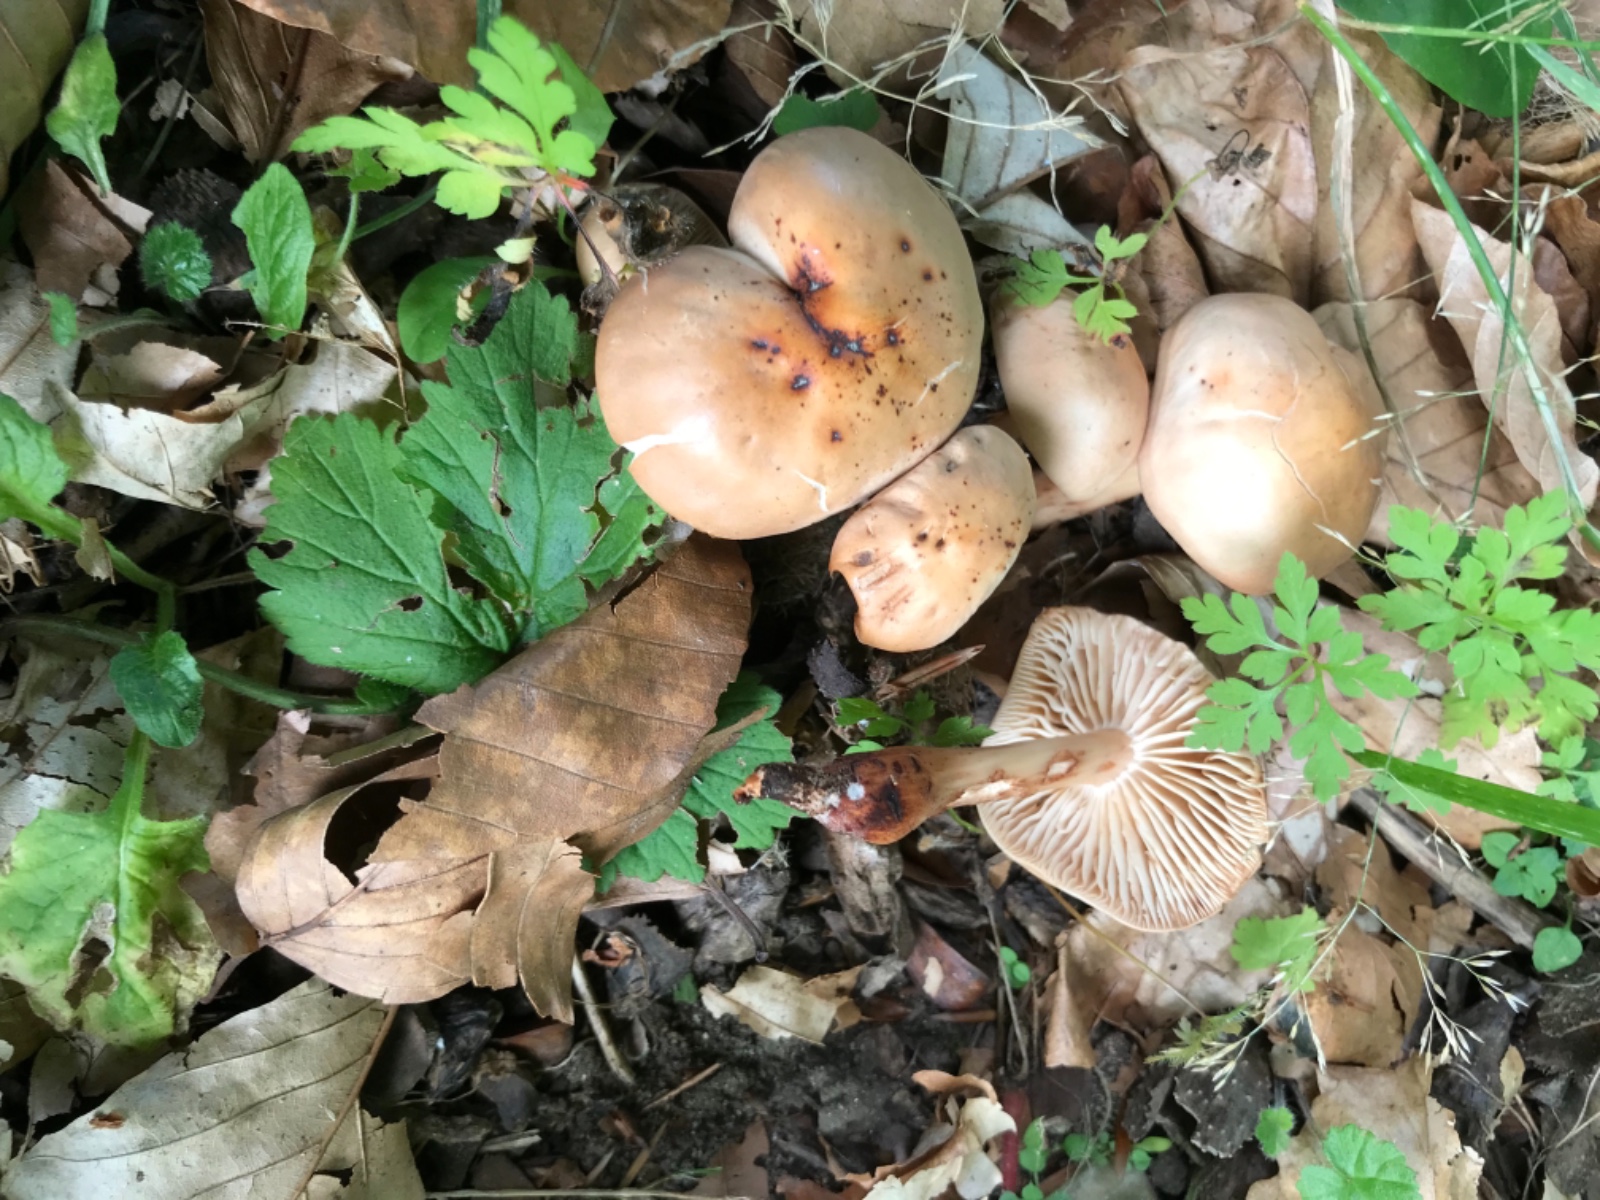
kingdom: Fungi
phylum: Basidiomycota
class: Agaricomycetes
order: Agaricales
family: Omphalotaceae
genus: Gymnopus
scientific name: Gymnopus fusipes
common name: tenstokket fladhat
